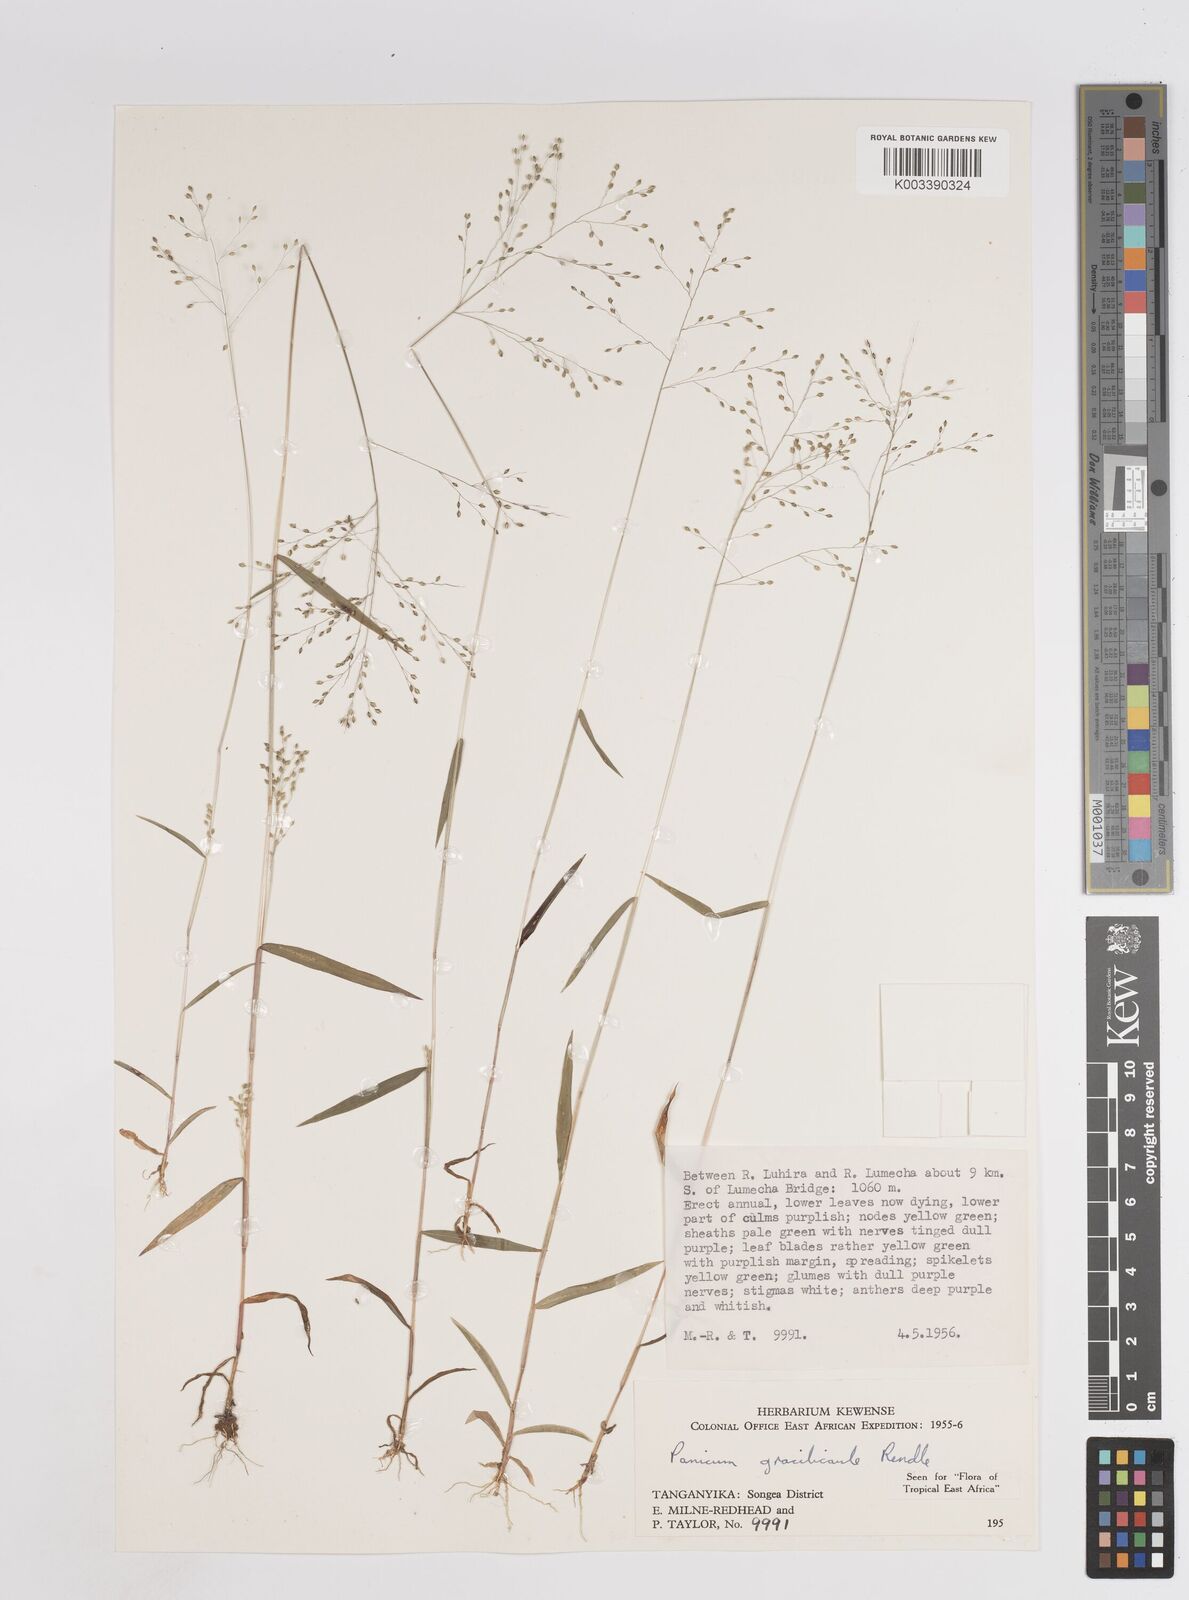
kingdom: Plantae
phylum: Tracheophyta
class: Liliopsida
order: Poales
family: Poaceae
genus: Trichanthecium
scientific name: Trichanthecium gracilicaule
